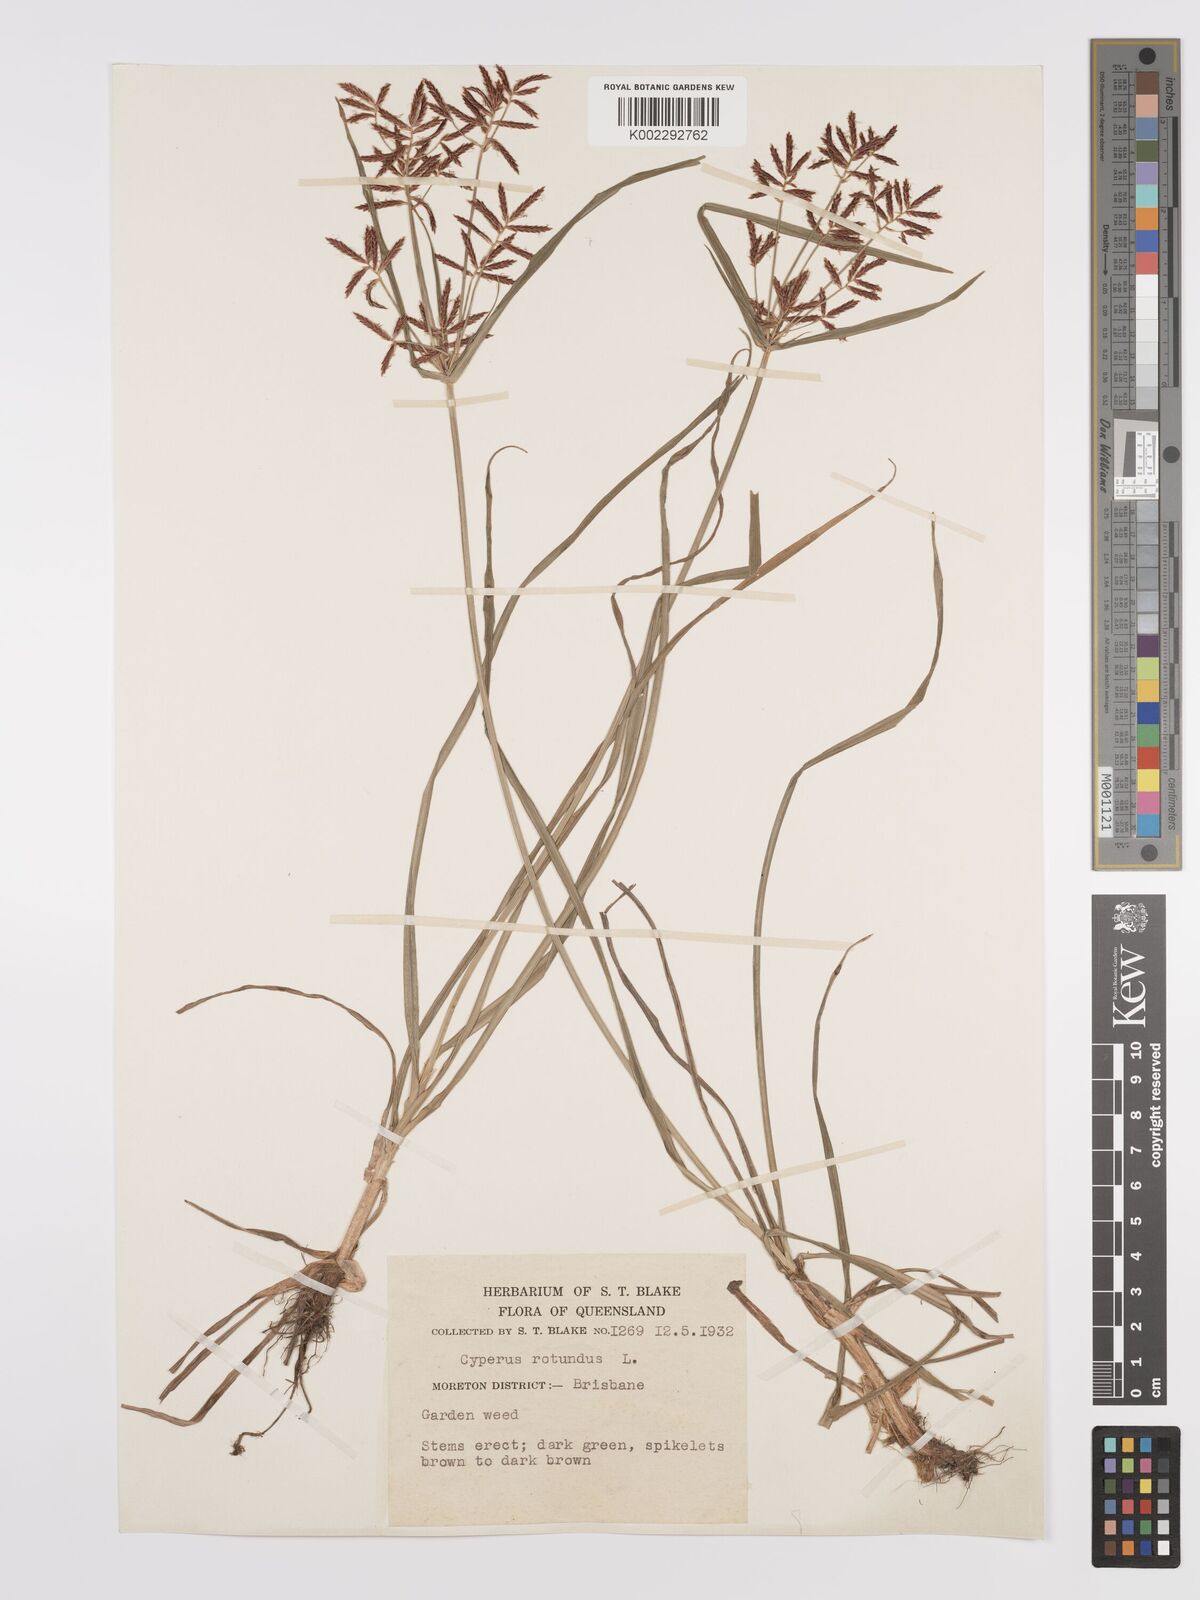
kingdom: Plantae
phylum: Tracheophyta
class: Liliopsida
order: Poales
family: Cyperaceae
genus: Cyperus
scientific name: Cyperus rotundus
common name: Nutgrass
